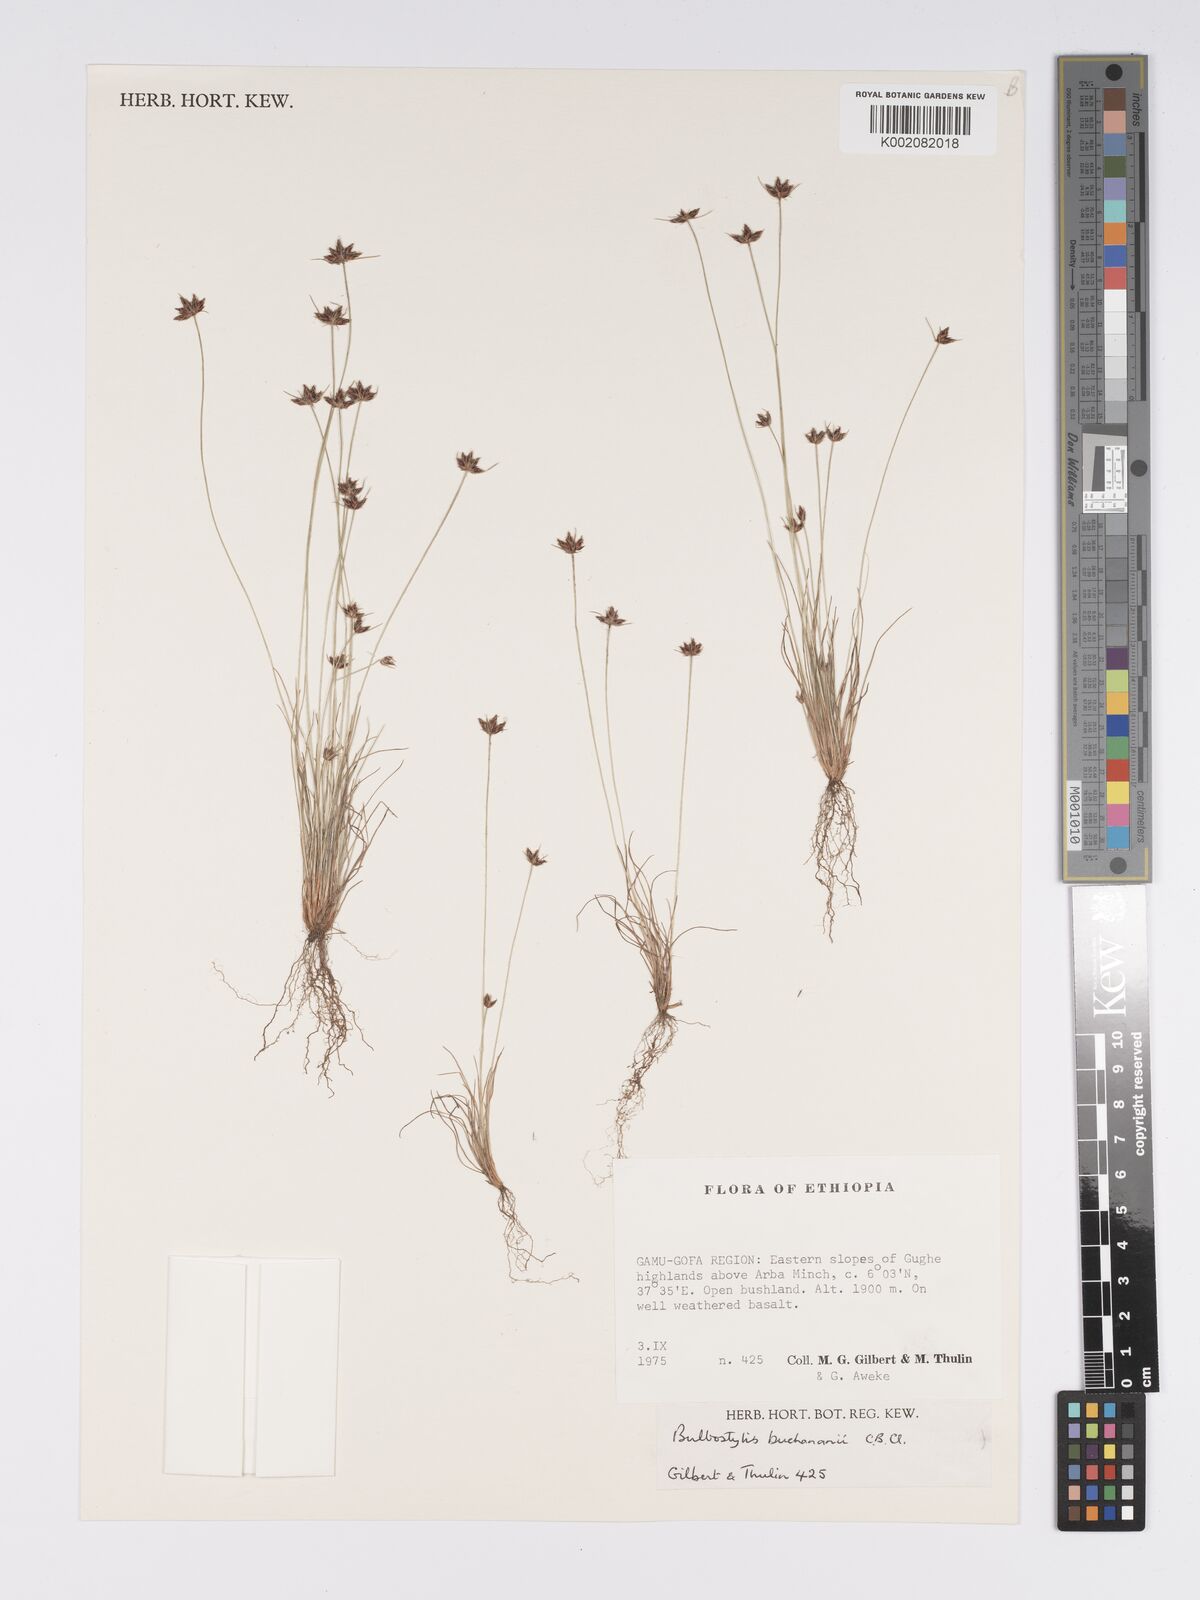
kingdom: Plantae
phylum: Tracheophyta
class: Liliopsida
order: Poales
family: Cyperaceae
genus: Bulbostylis
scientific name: Bulbostylis buchananii
